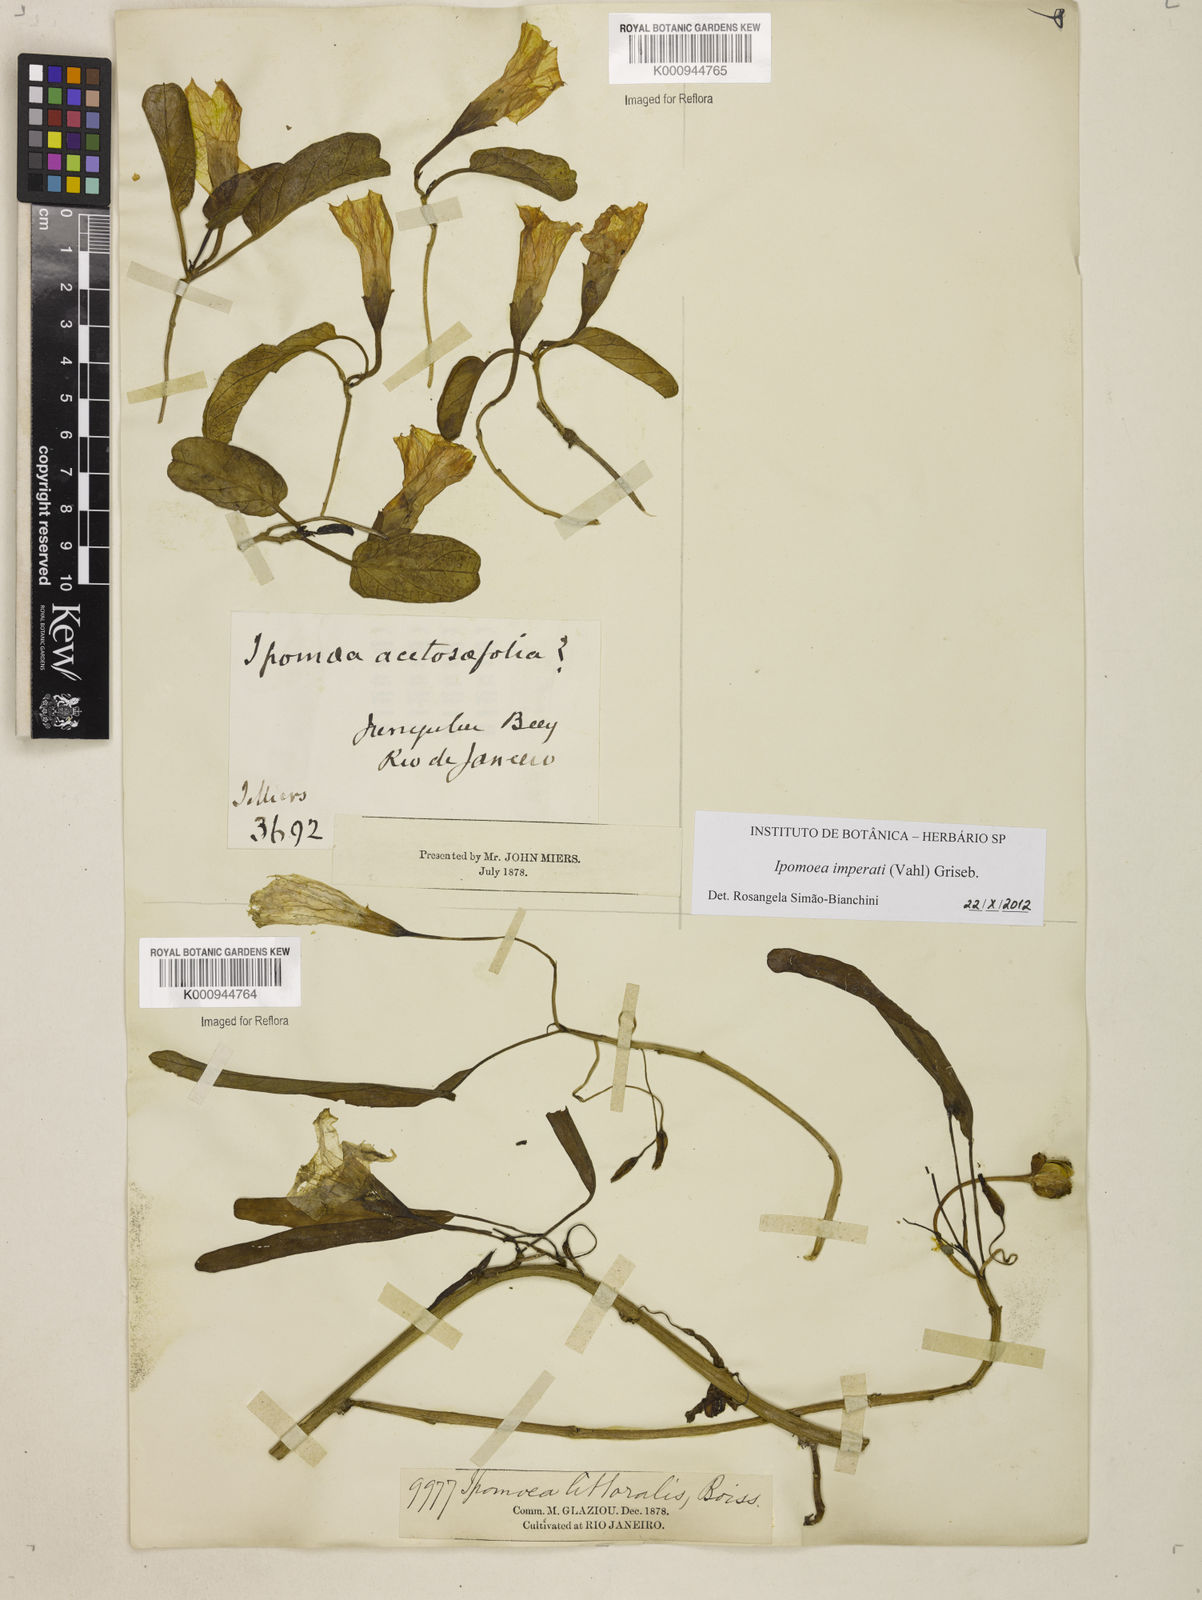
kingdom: Plantae
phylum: Tracheophyta
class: Magnoliopsida
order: Solanales
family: Convolvulaceae
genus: Ipomoea
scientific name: Ipomoea
